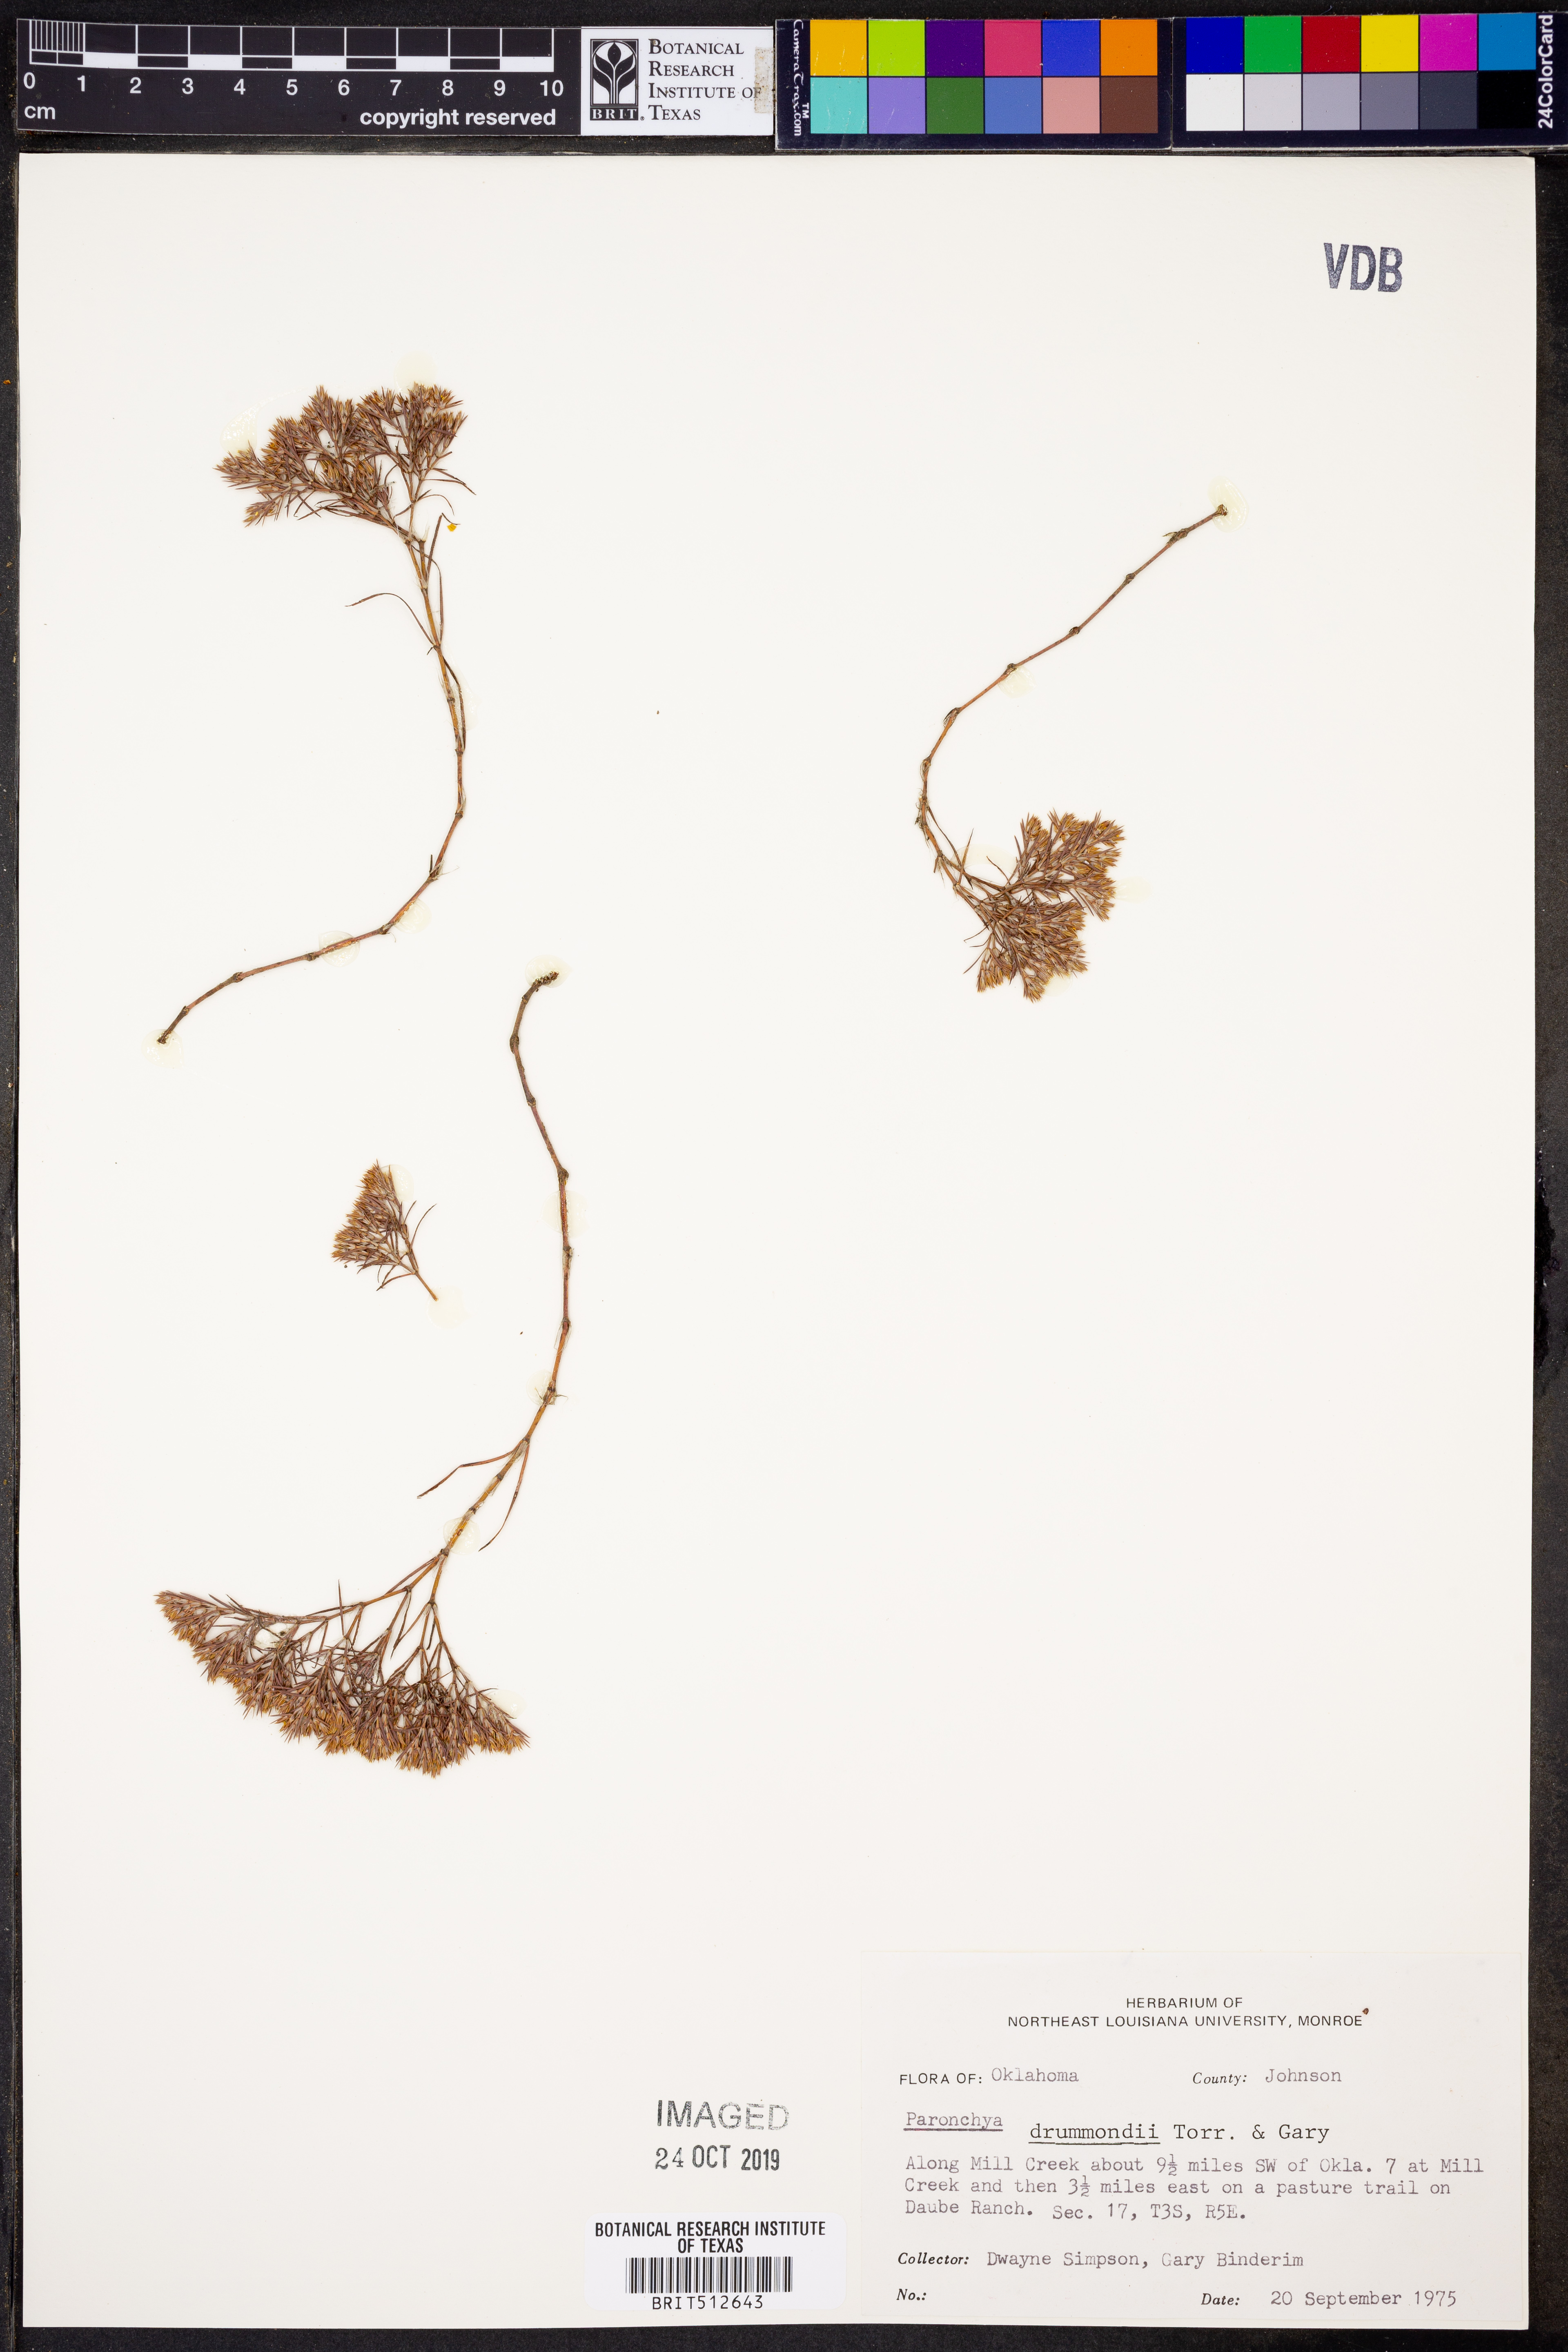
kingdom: Plantae
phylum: Tracheophyta
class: Magnoliopsida
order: Caryophyllales
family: Caryophyllaceae
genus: Paronychia
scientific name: Paronychia drummondii
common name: Drummond's nailwort
